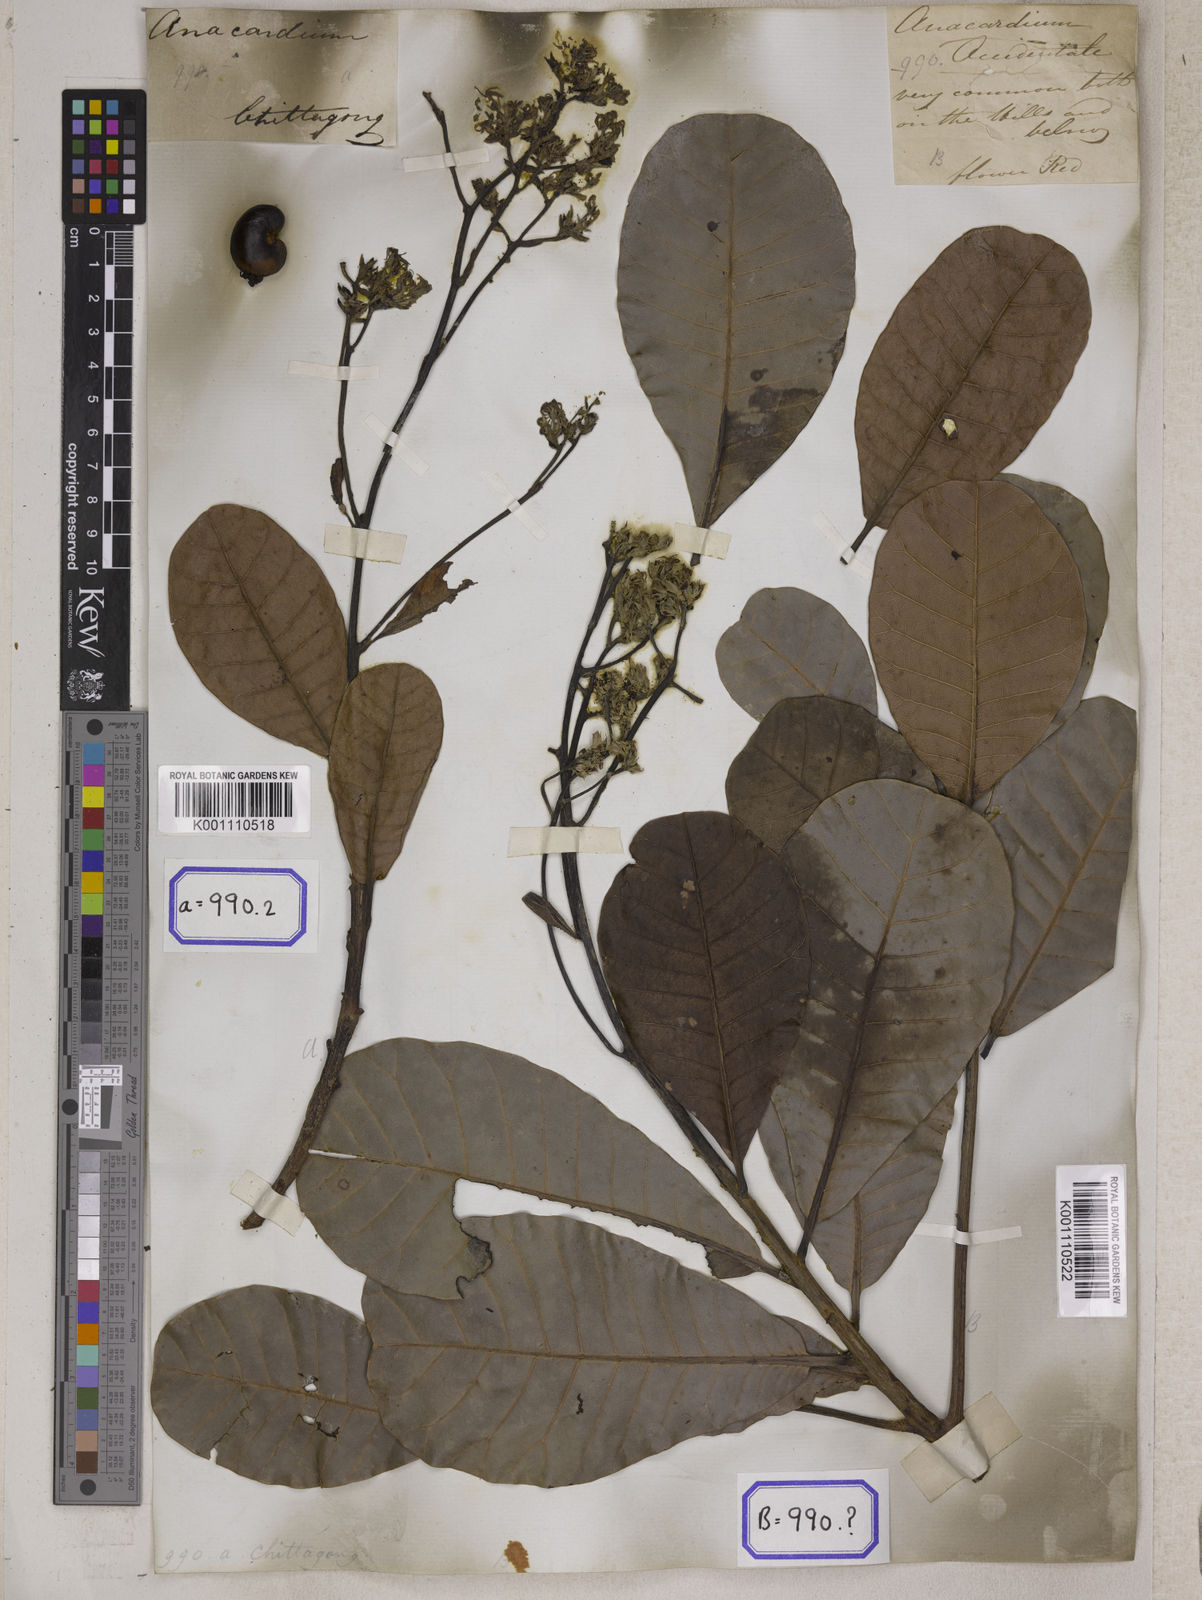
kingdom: Plantae
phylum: Tracheophyta
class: Magnoliopsida
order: Sapindales
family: Anacardiaceae
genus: Anacardium
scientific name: Anacardium occidentale
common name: Cashew
